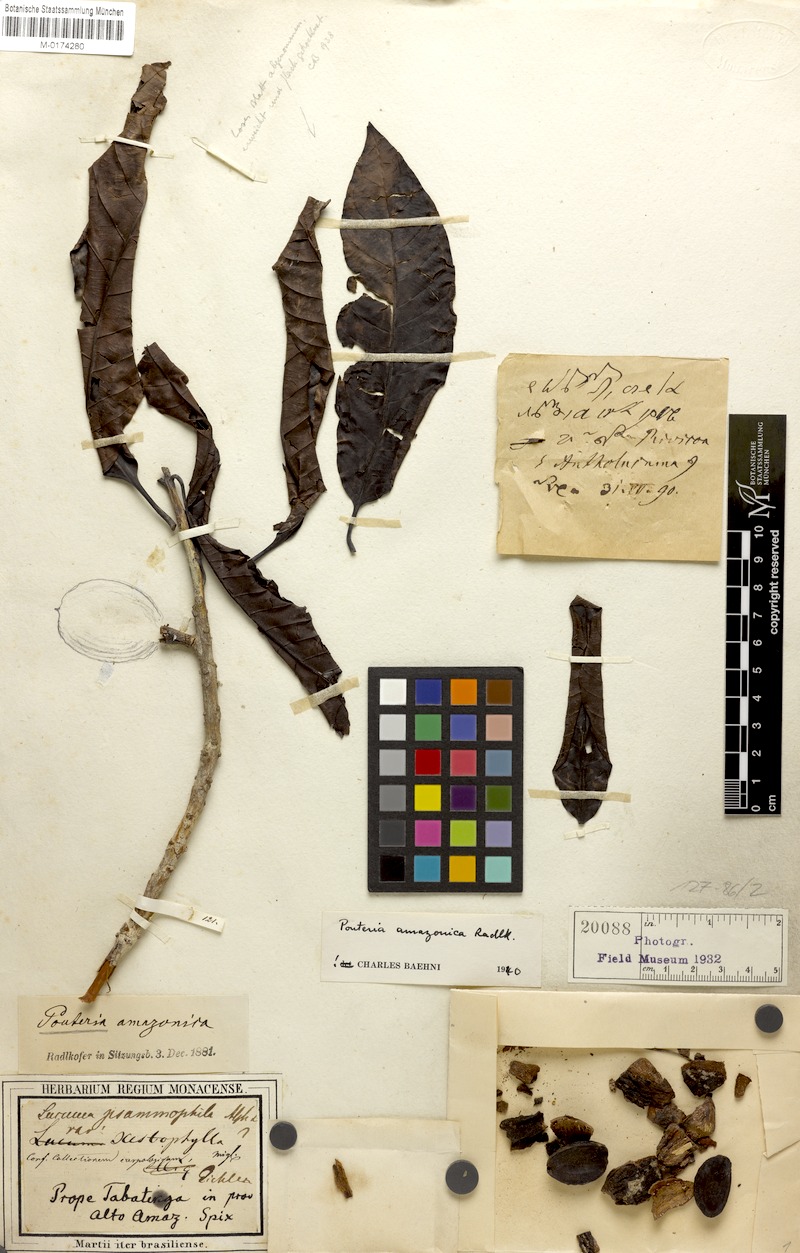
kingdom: Plantae
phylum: Tracheophyta
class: Magnoliopsida
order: Ericales
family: Sapotaceae
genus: Pouteria
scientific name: Pouteria amazonica
